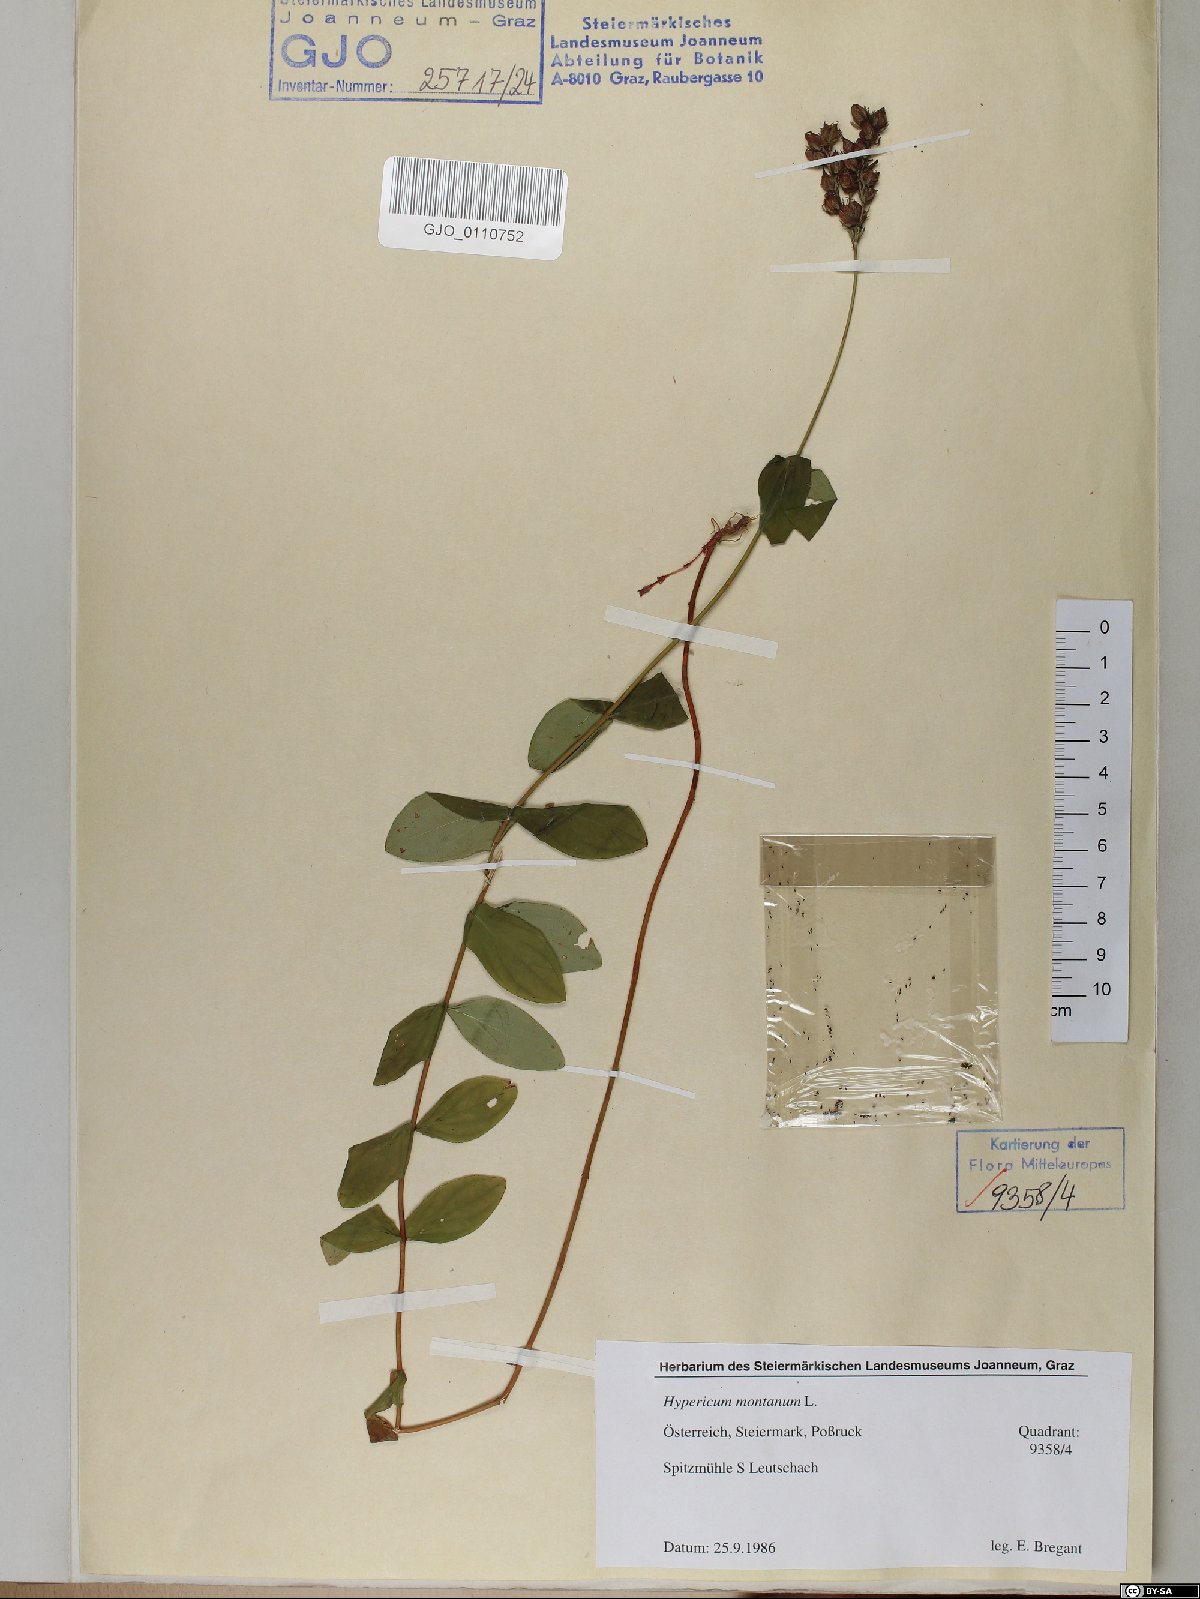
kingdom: Plantae
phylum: Tracheophyta
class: Magnoliopsida
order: Malpighiales
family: Hypericaceae
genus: Hypericum
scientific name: Hypericum montanum
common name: Pale st. john's-wort
